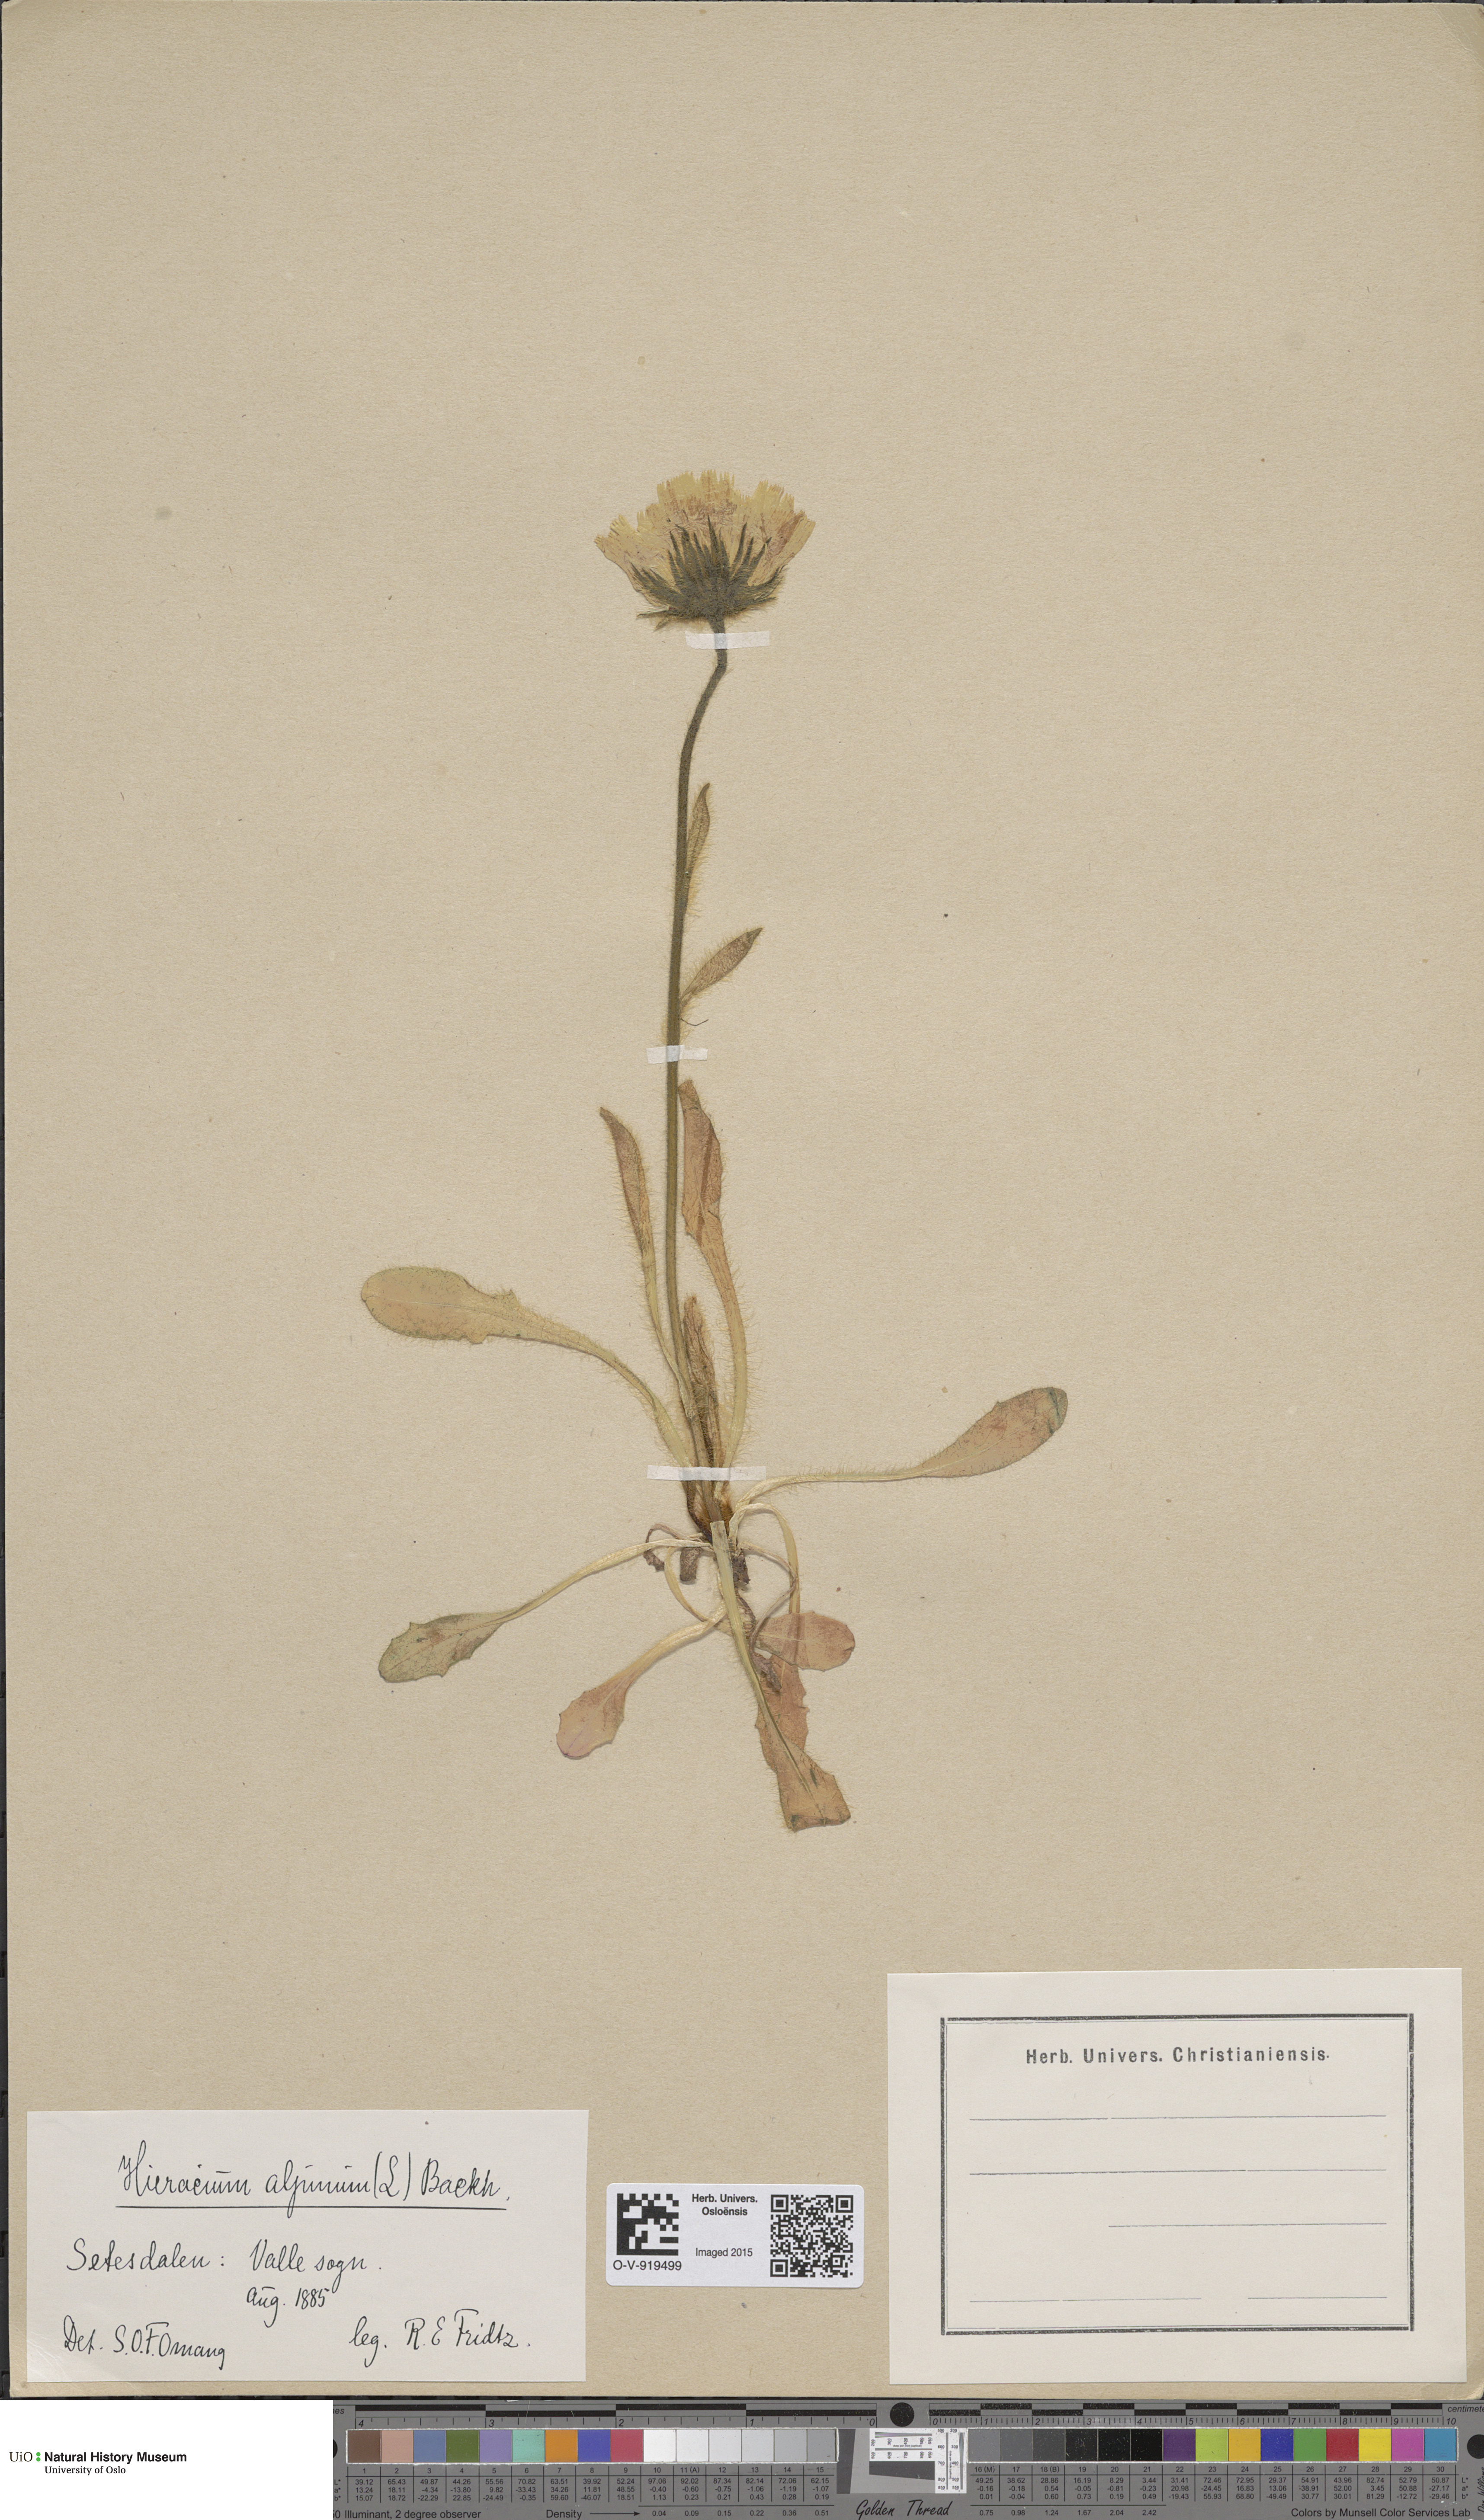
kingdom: Plantae
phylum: Tracheophyta
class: Magnoliopsida
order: Asterales
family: Asteraceae
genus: Hieracium
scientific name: Hieracium alpinum
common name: Alpine hawkweed
